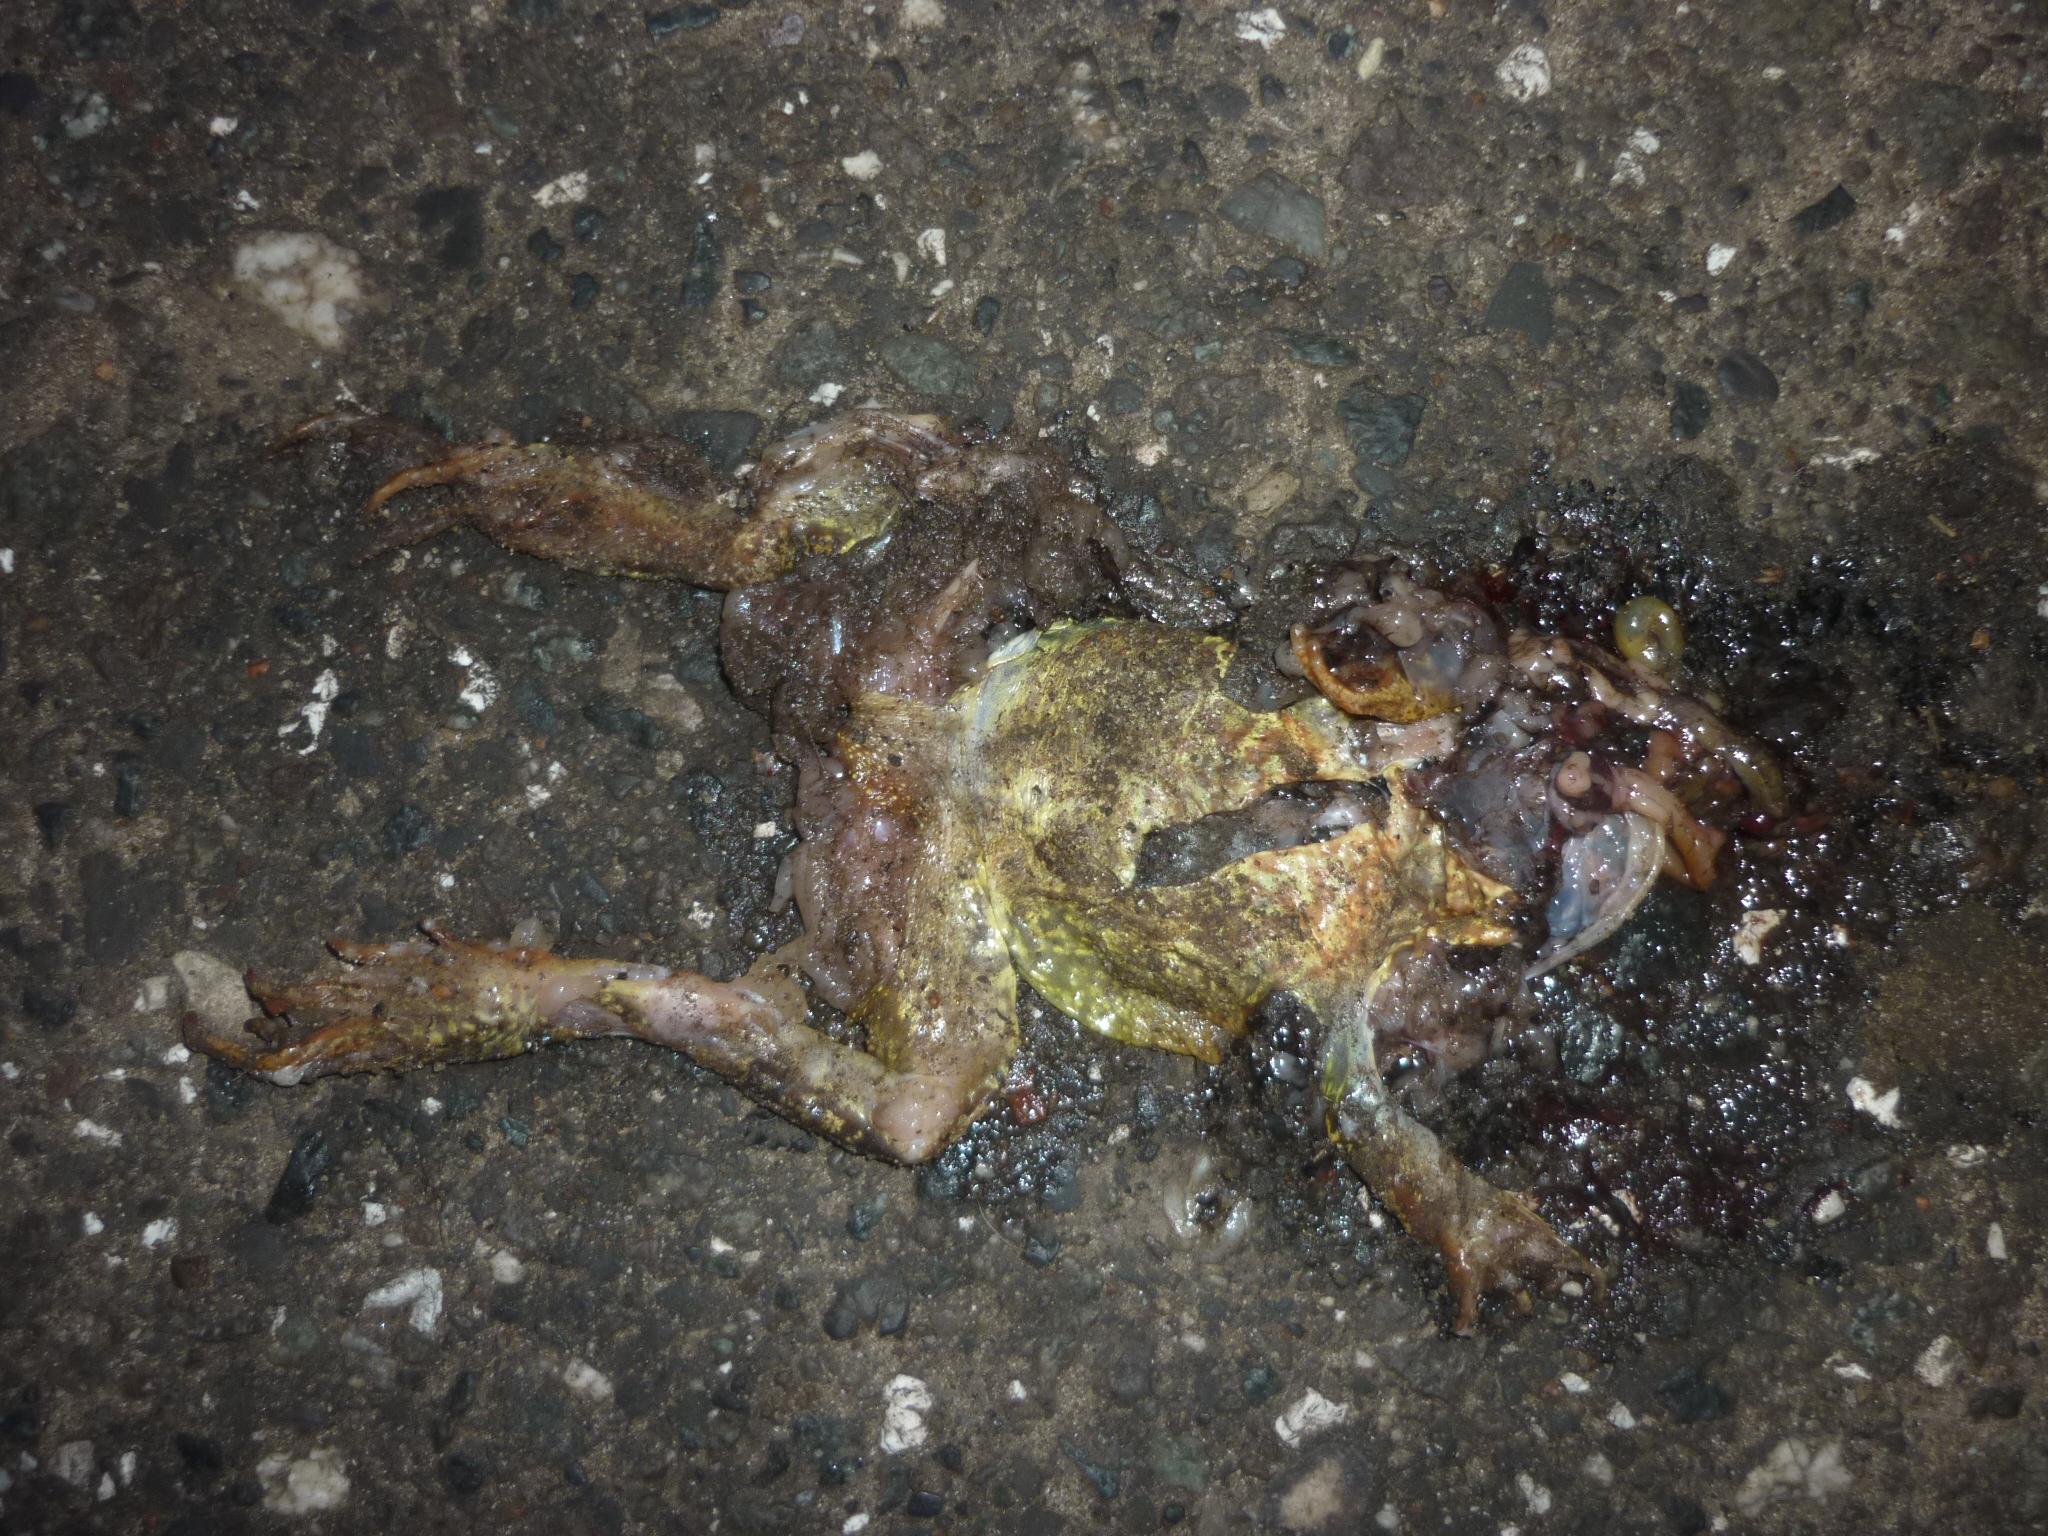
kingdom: Animalia
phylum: Chordata
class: Amphibia
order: Anura
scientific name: Anura
